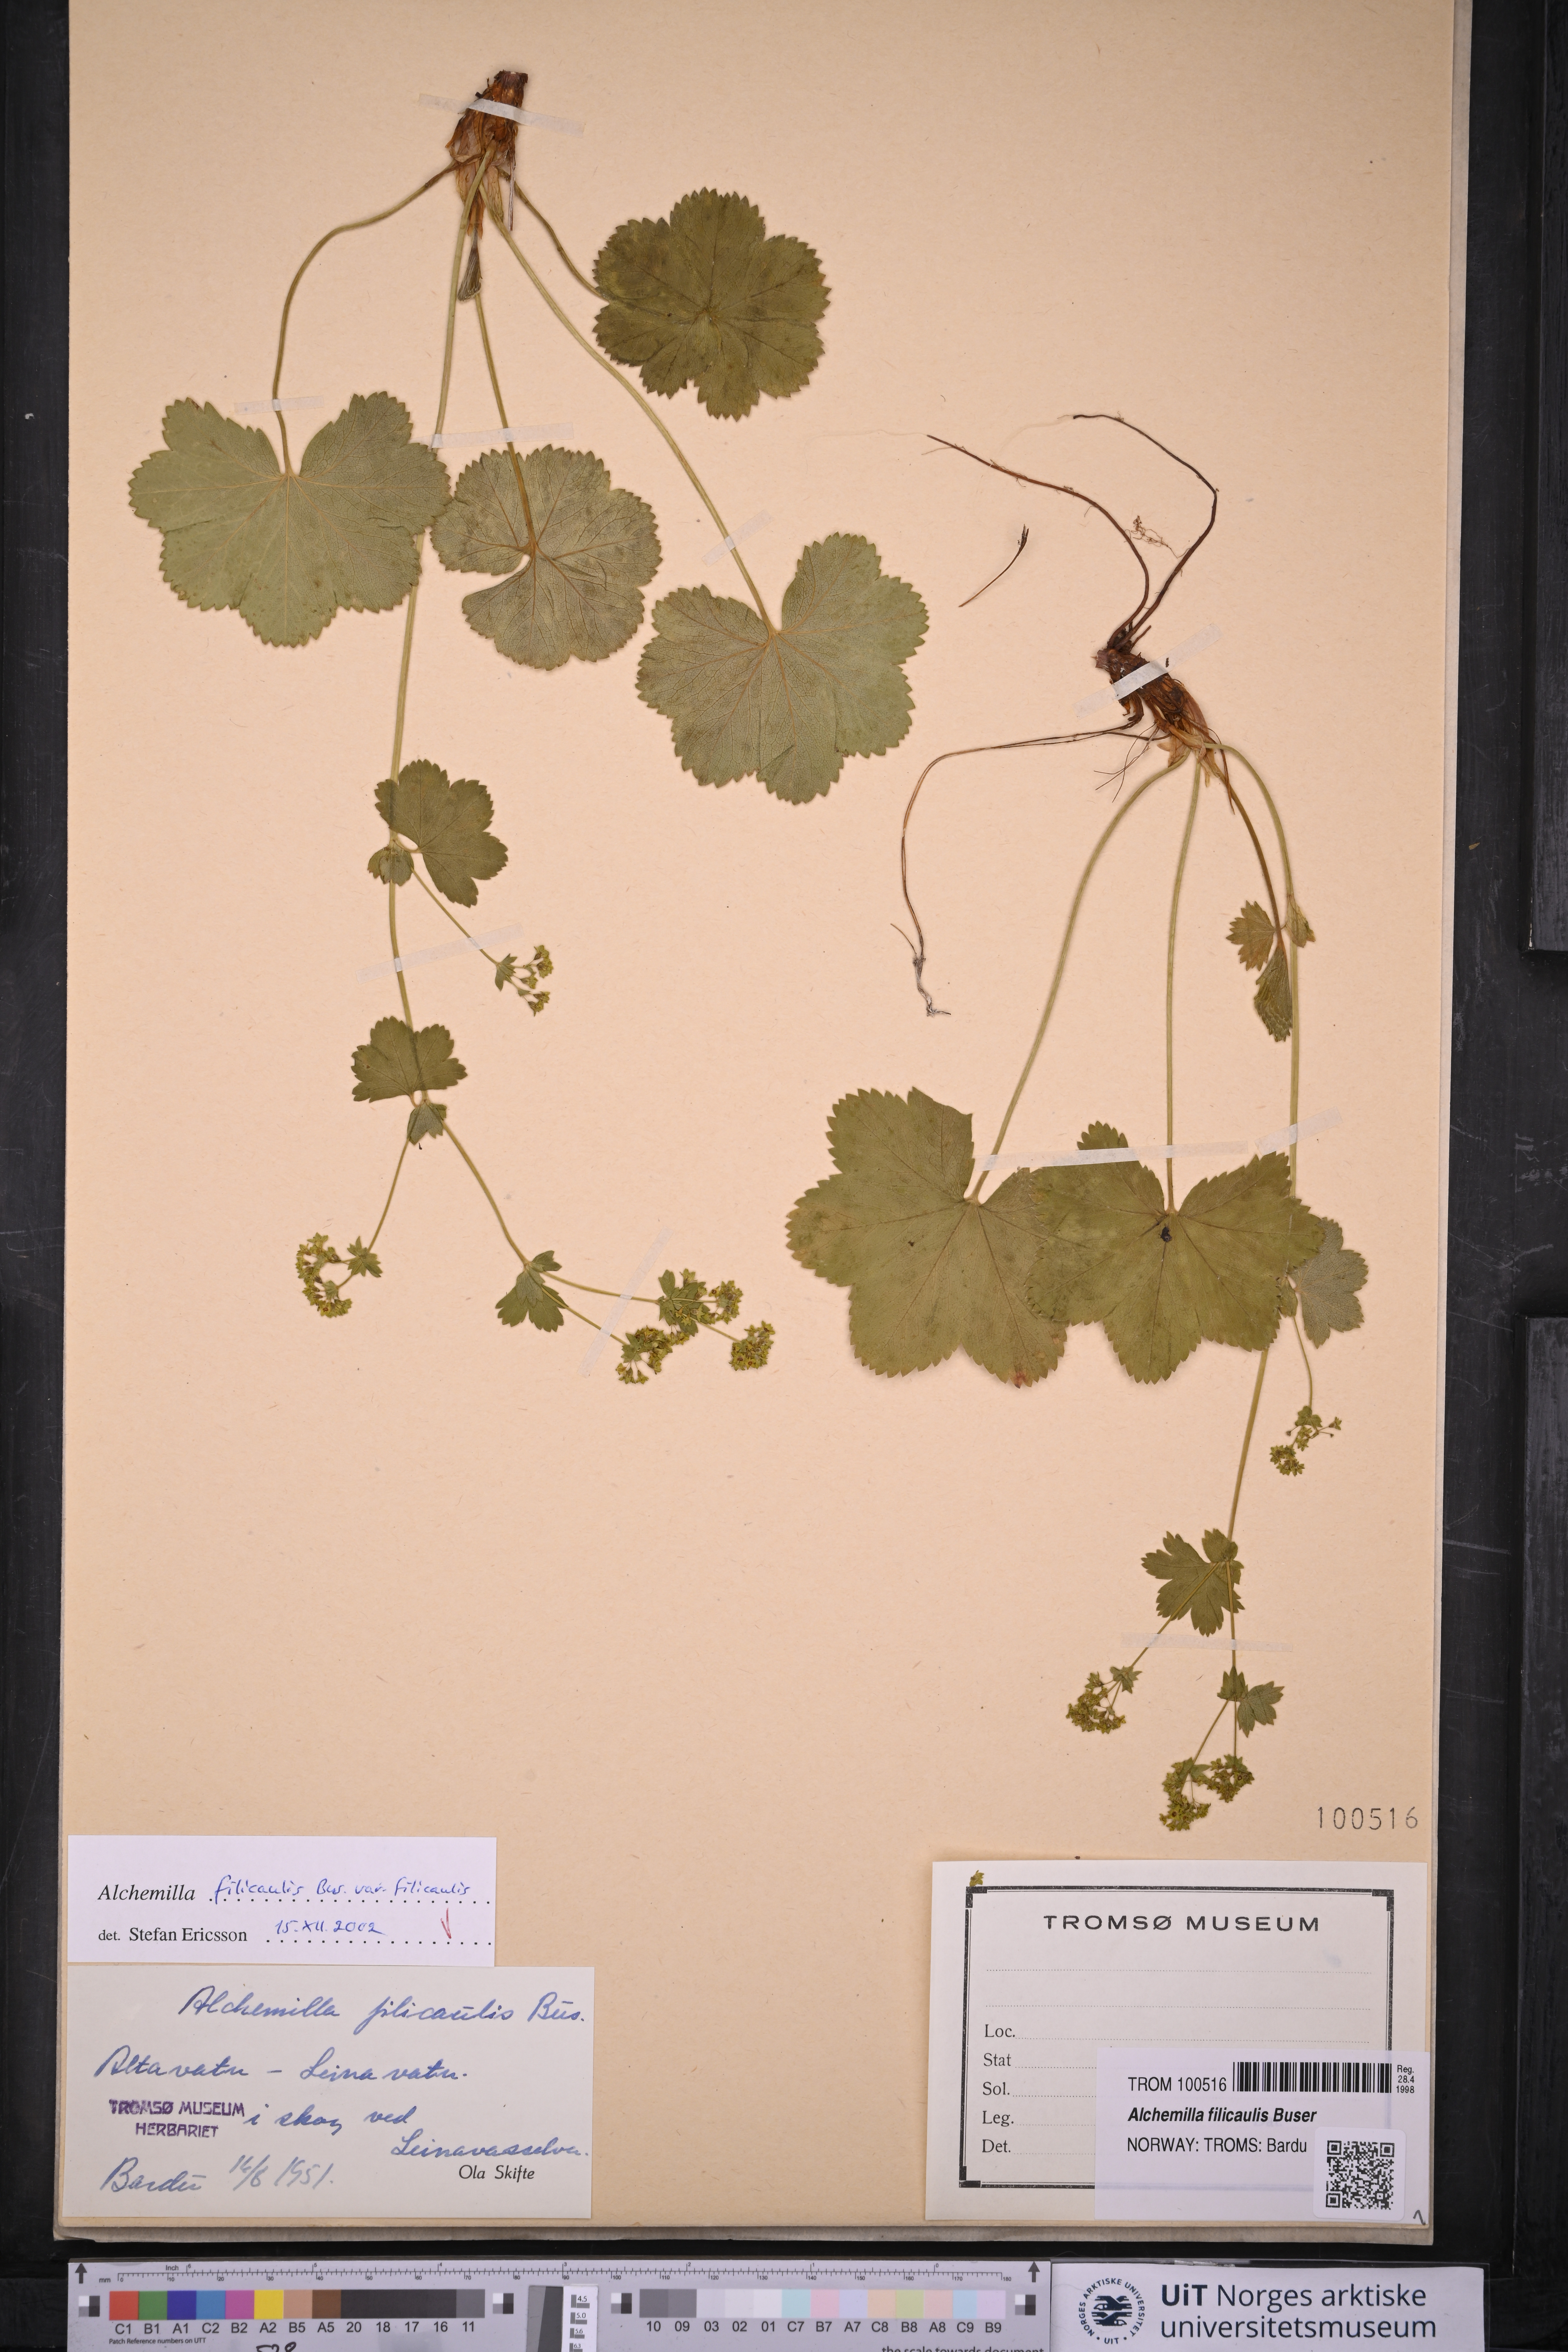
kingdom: Plantae
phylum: Tracheophyta
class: Magnoliopsida
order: Rosales
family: Rosaceae
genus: Alchemilla
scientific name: Alchemilla filicaulis
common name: Hairy lady's-mantle
